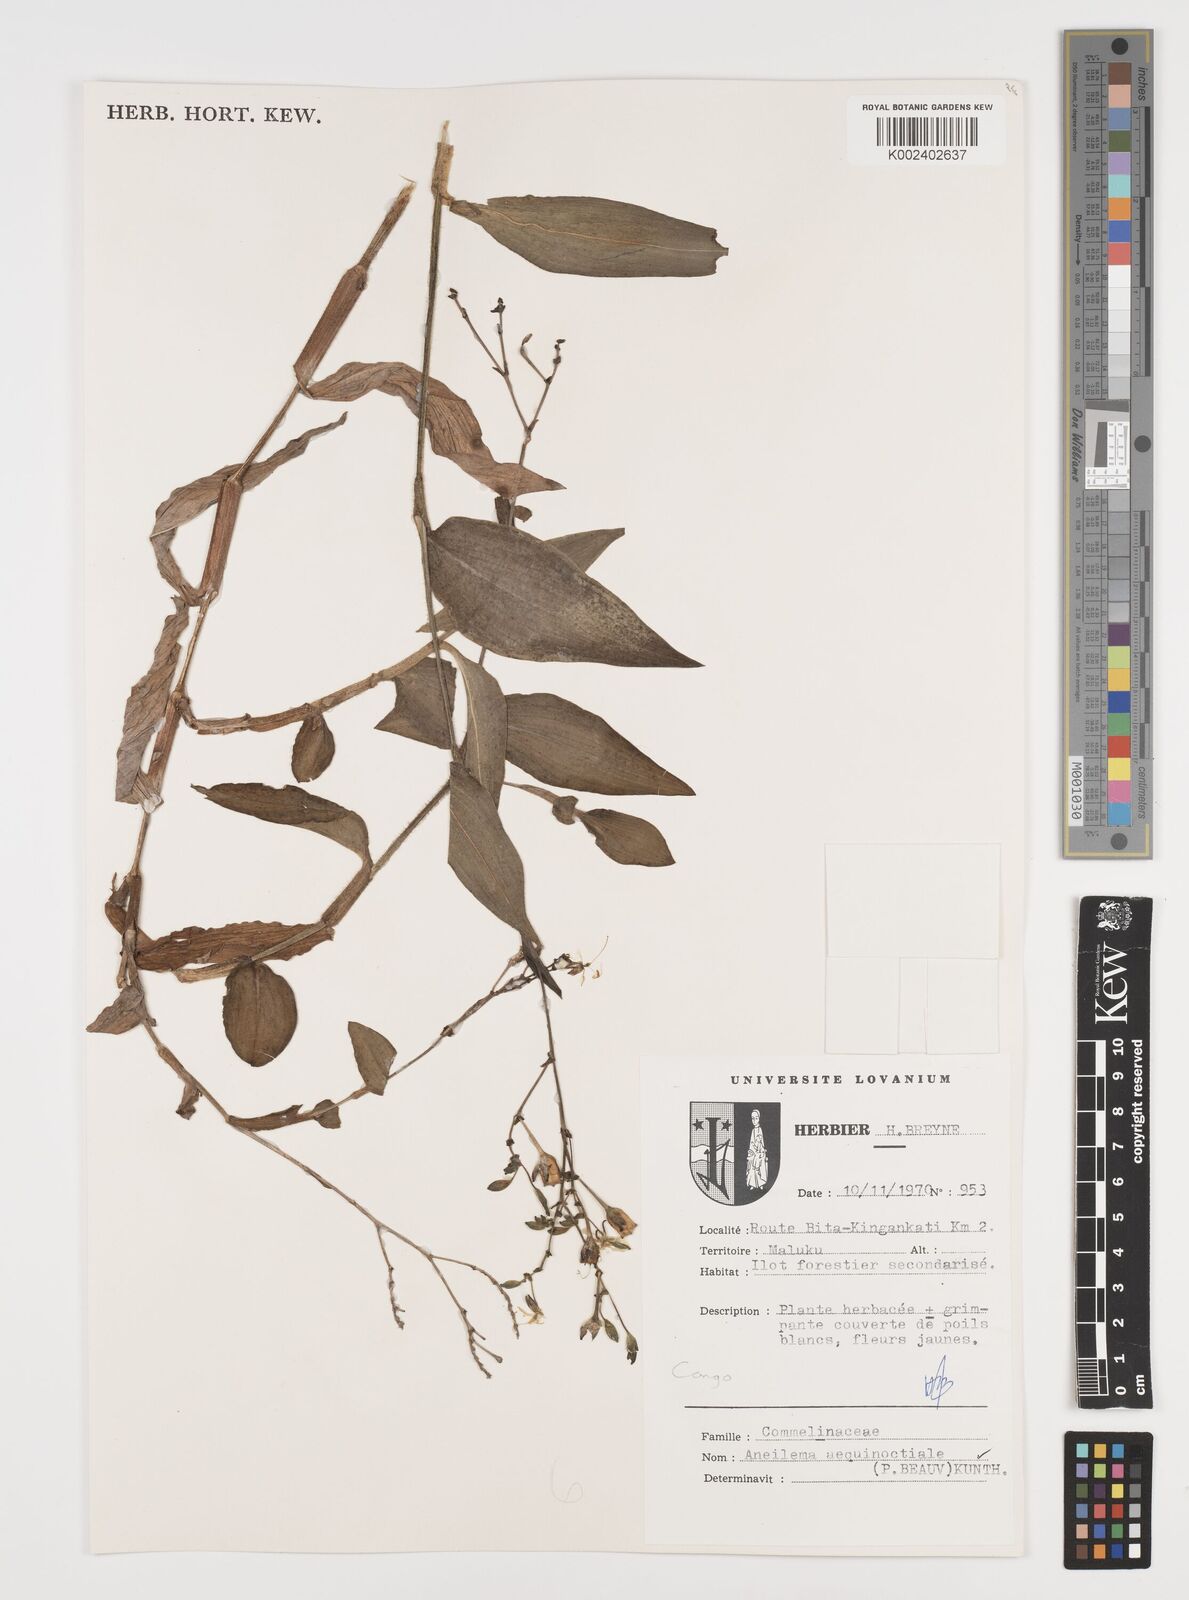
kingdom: Plantae
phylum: Tracheophyta
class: Liliopsida
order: Commelinales
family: Commelinaceae
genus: Aneilema
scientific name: Aneilema aequinoctiale
